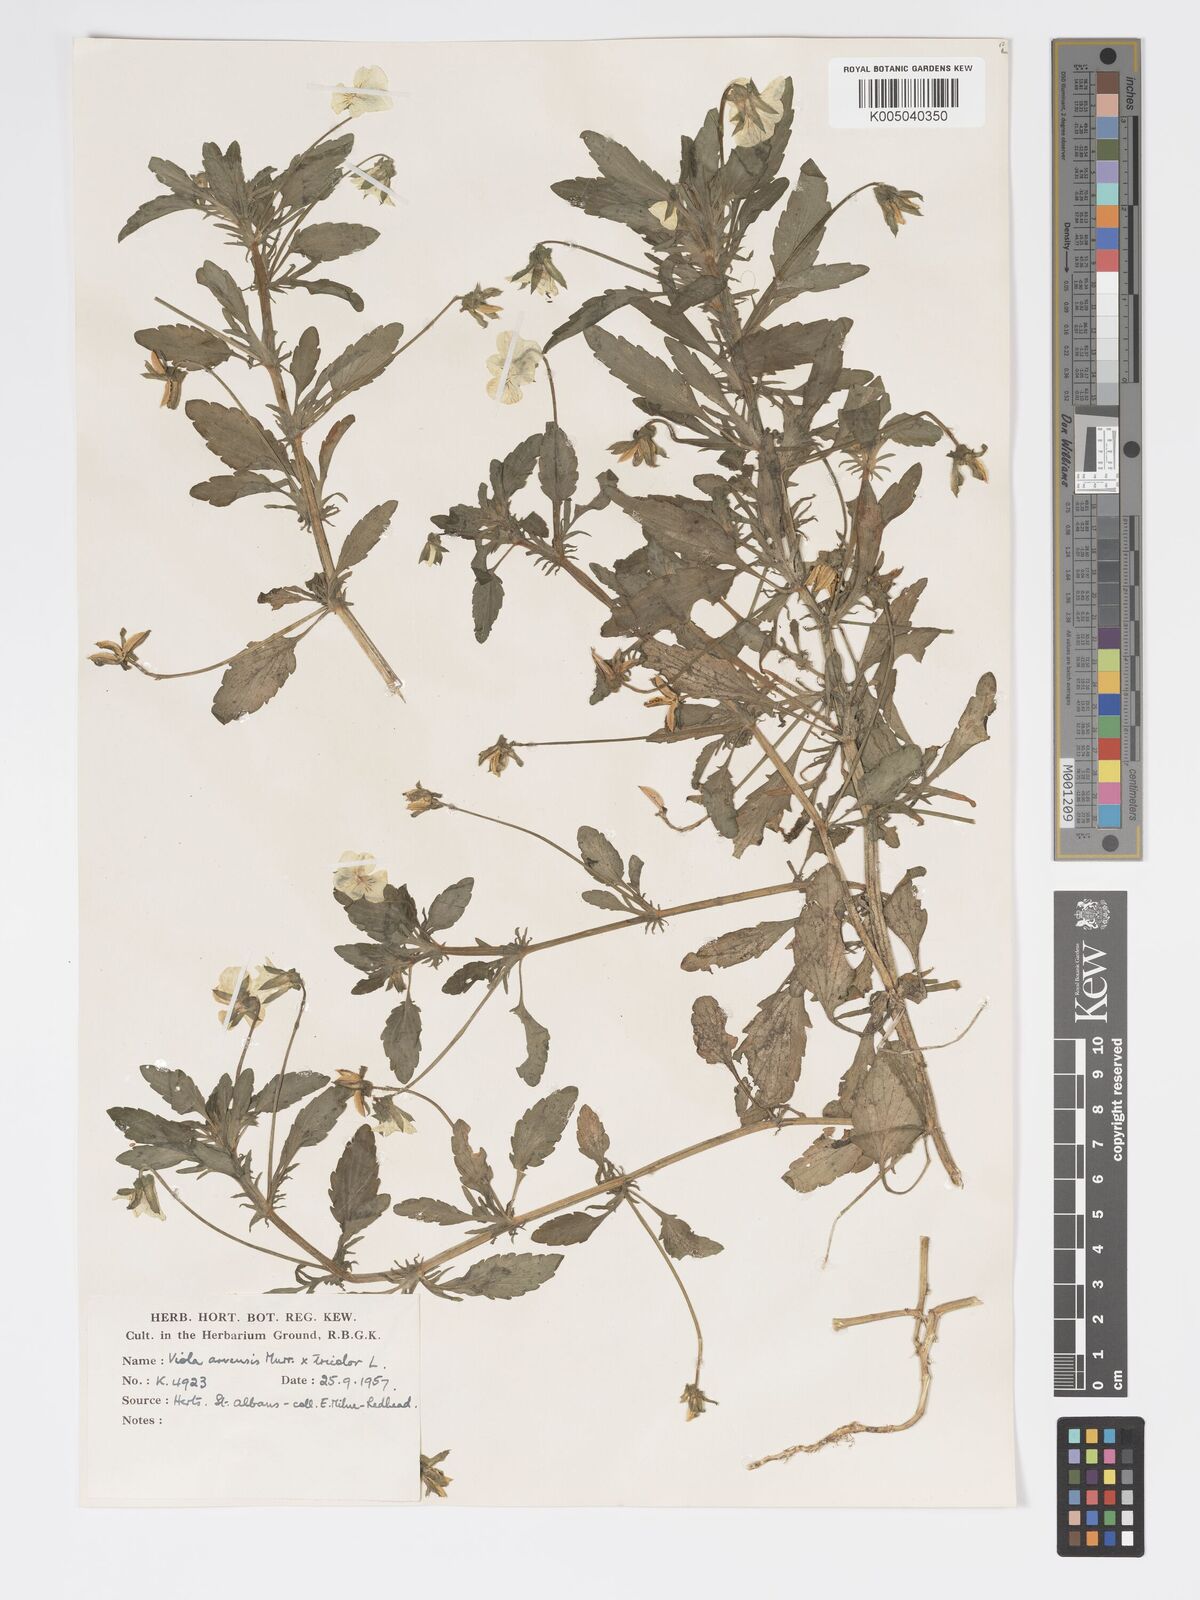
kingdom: Plantae
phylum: Tracheophyta
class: Magnoliopsida
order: Malpighiales
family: Violaceae
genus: Viola
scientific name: Viola arvensis
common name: Field pansy
